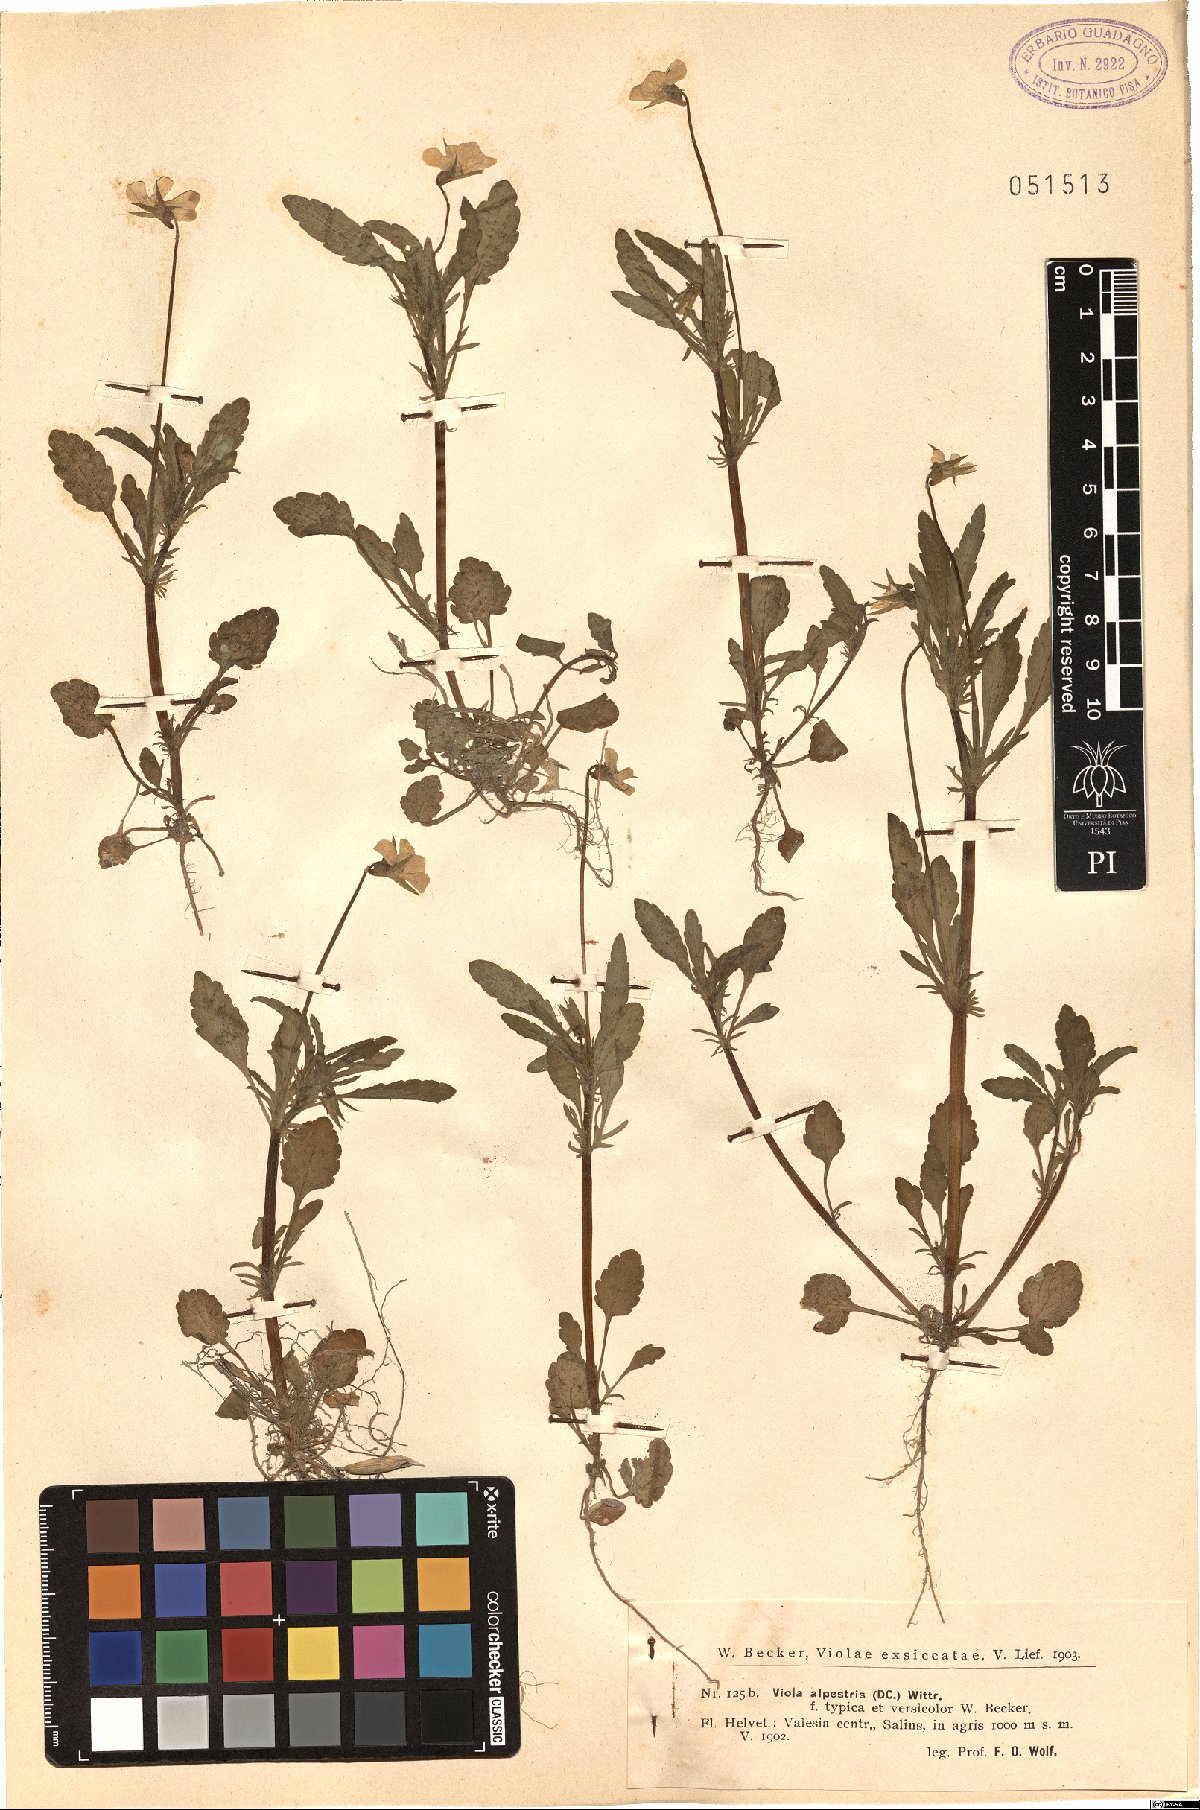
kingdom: Plantae
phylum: Tracheophyta
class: Magnoliopsida
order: Malpighiales
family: Violaceae
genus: Viola
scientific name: Viola tricolor
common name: Pansy
